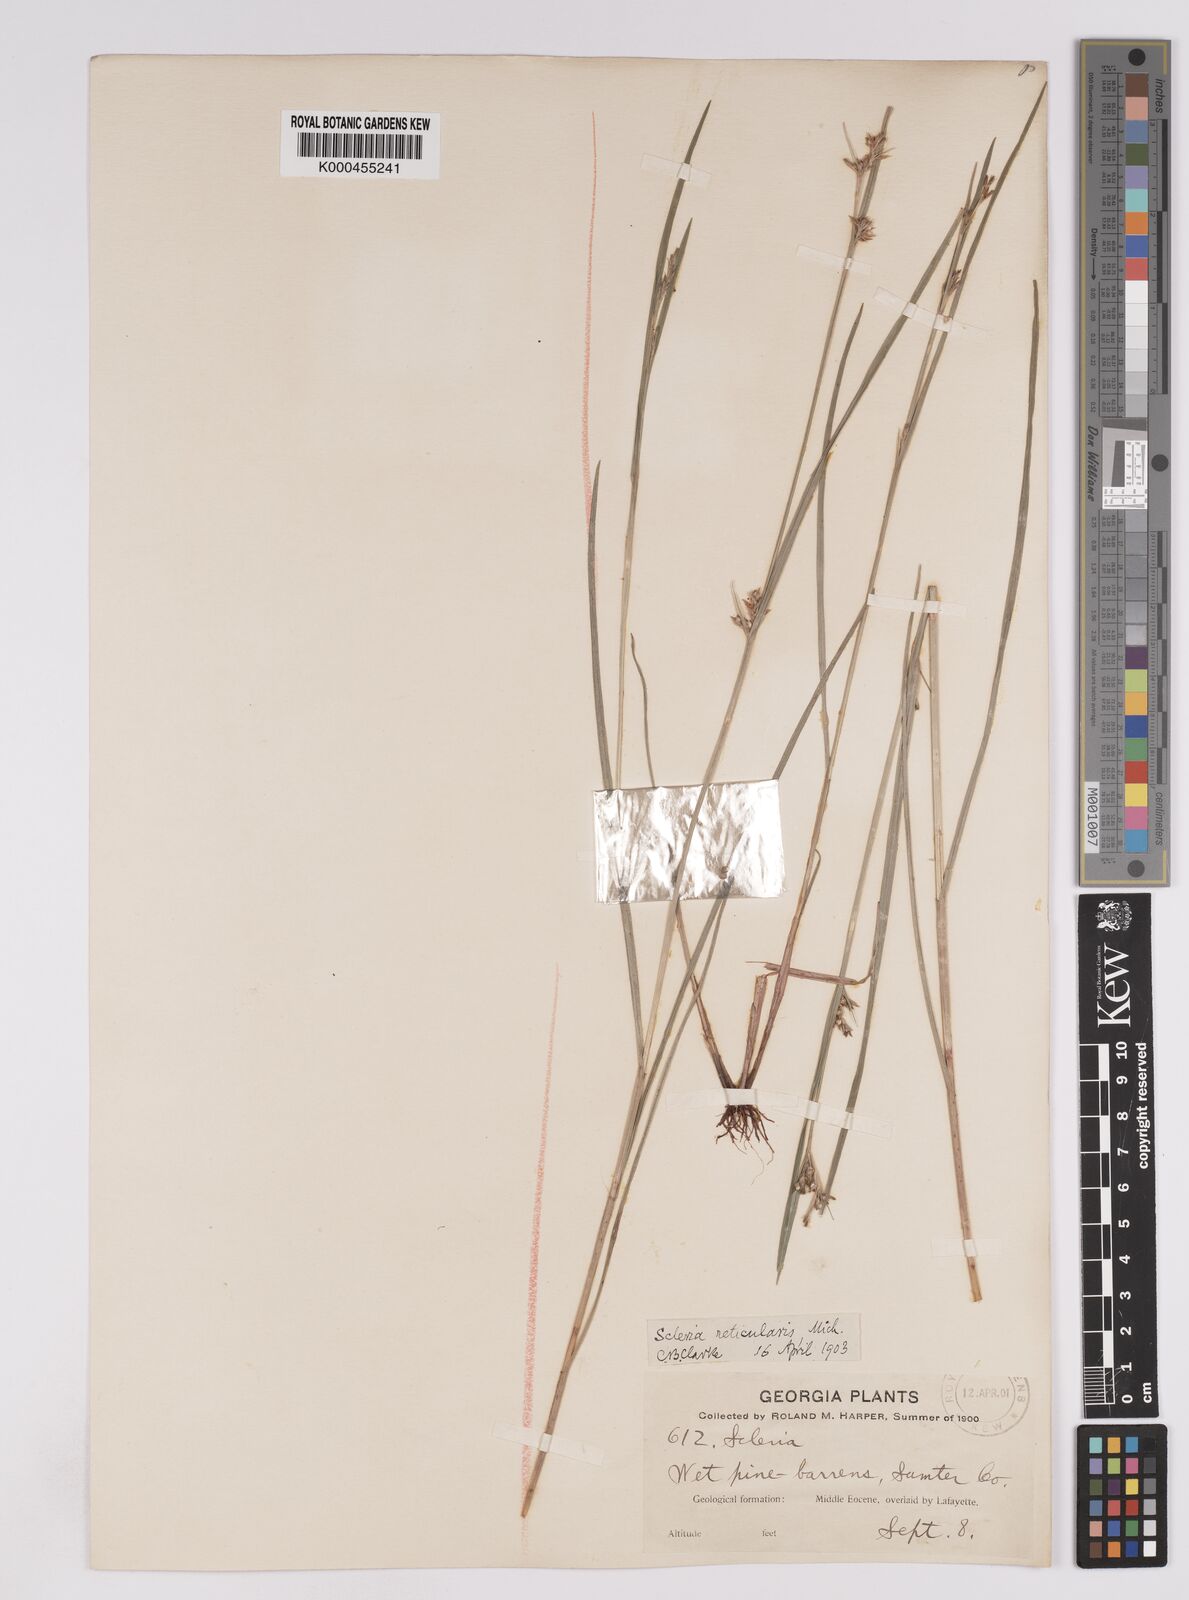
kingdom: Plantae
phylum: Tracheophyta
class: Liliopsida
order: Poales
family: Cyperaceae
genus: Scleria
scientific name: Scleria
